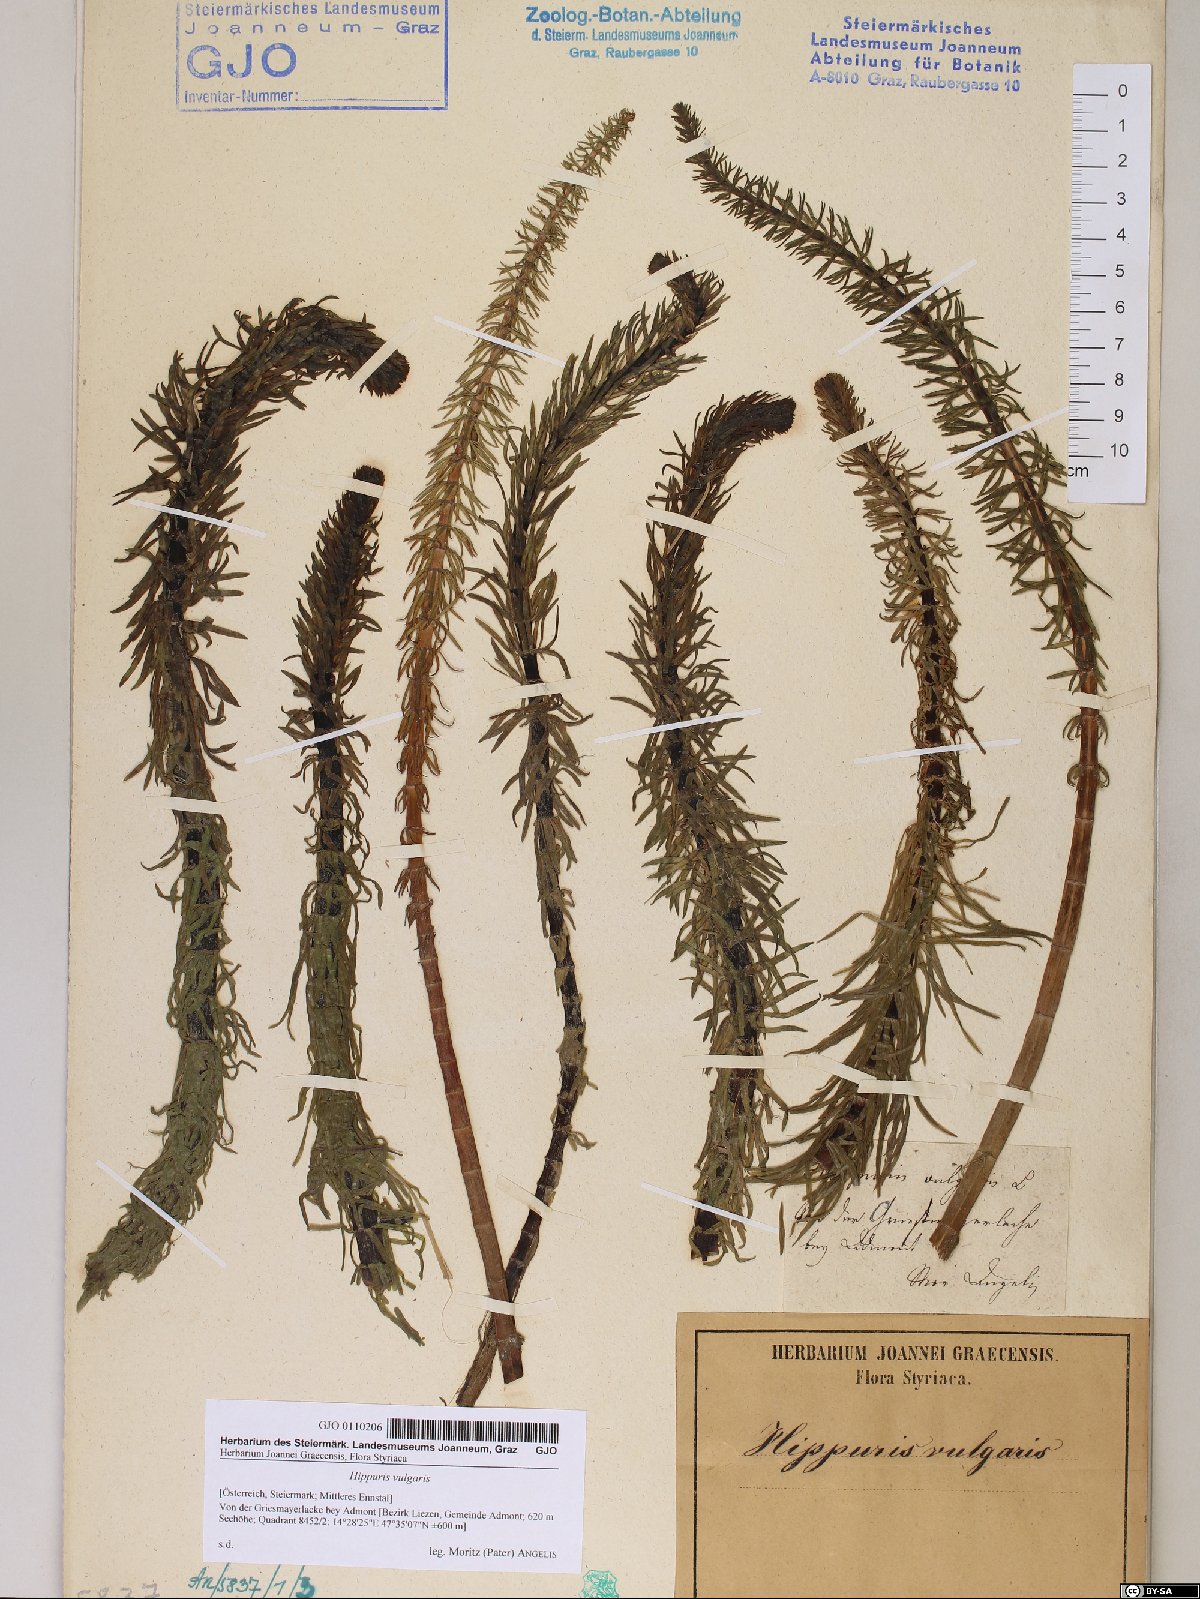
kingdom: Plantae
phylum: Tracheophyta
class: Magnoliopsida
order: Lamiales
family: Plantaginaceae
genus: Hippuris
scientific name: Hippuris vulgaris
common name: Mare's-tail
